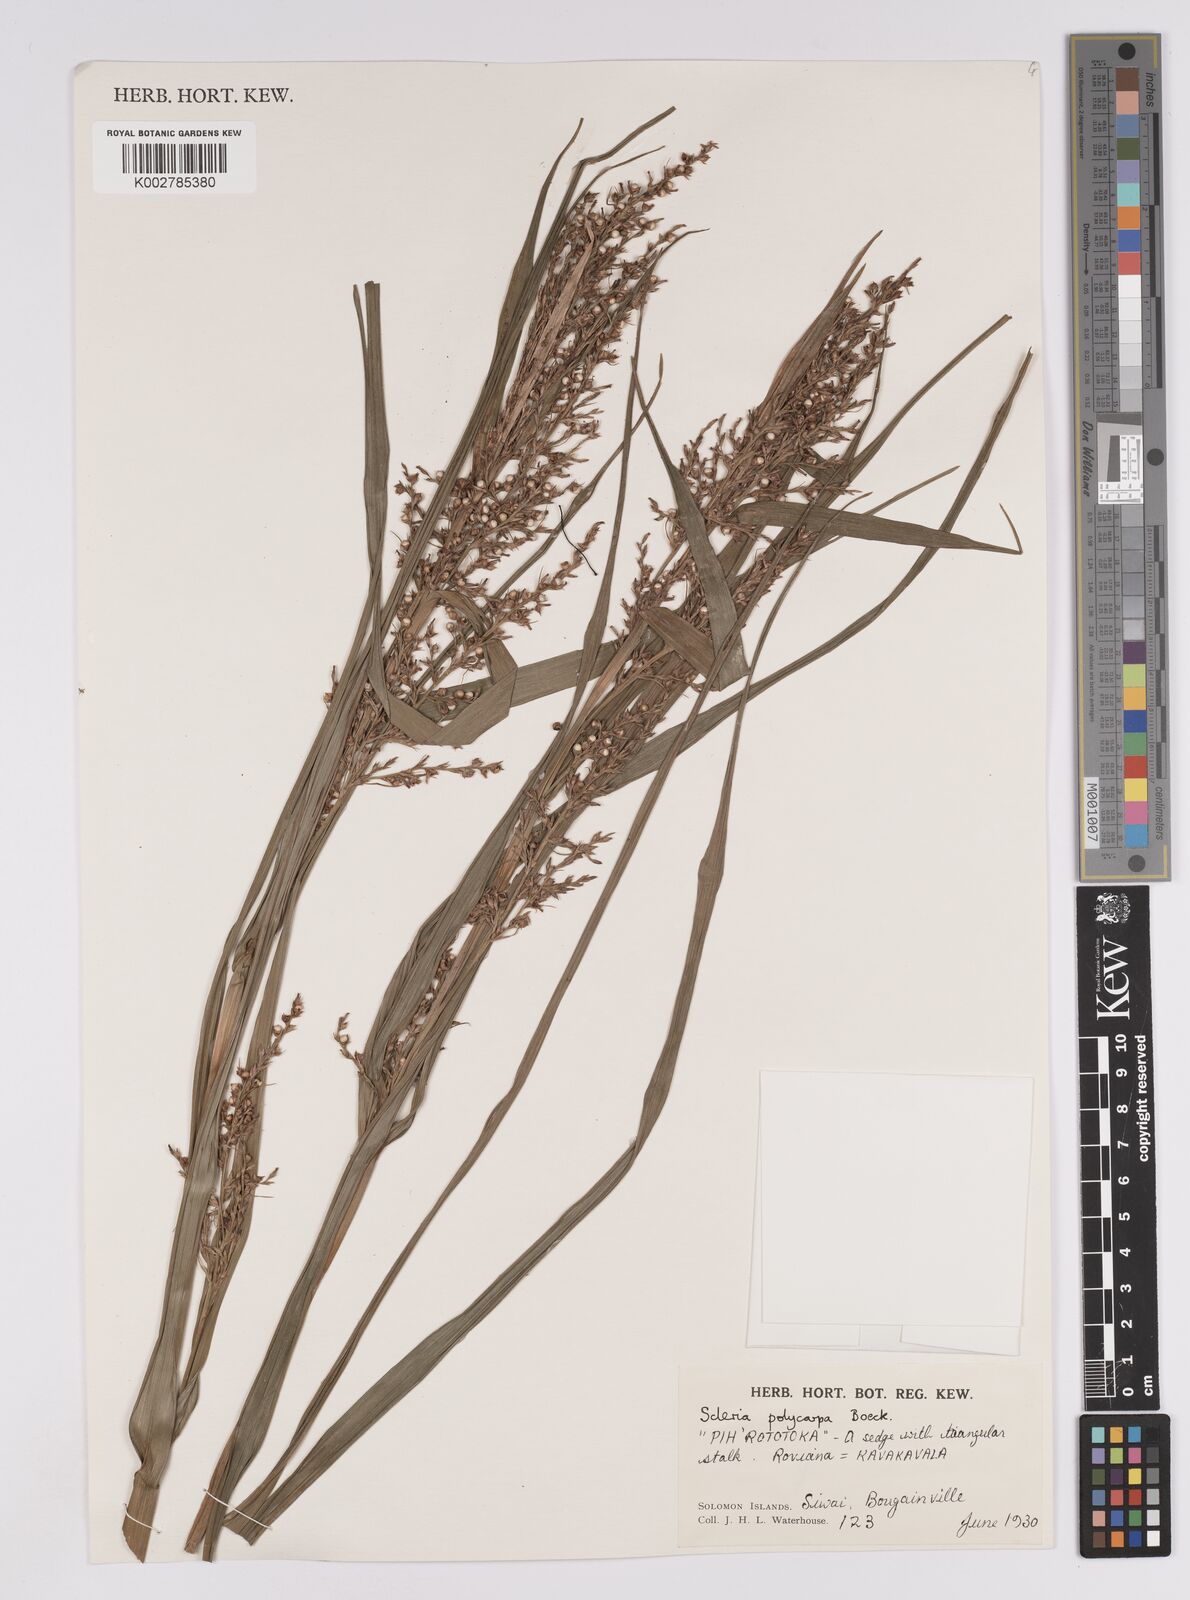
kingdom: Plantae
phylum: Tracheophyta
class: Liliopsida
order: Poales
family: Cyperaceae
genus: Scleria
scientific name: Scleria polycarpa
